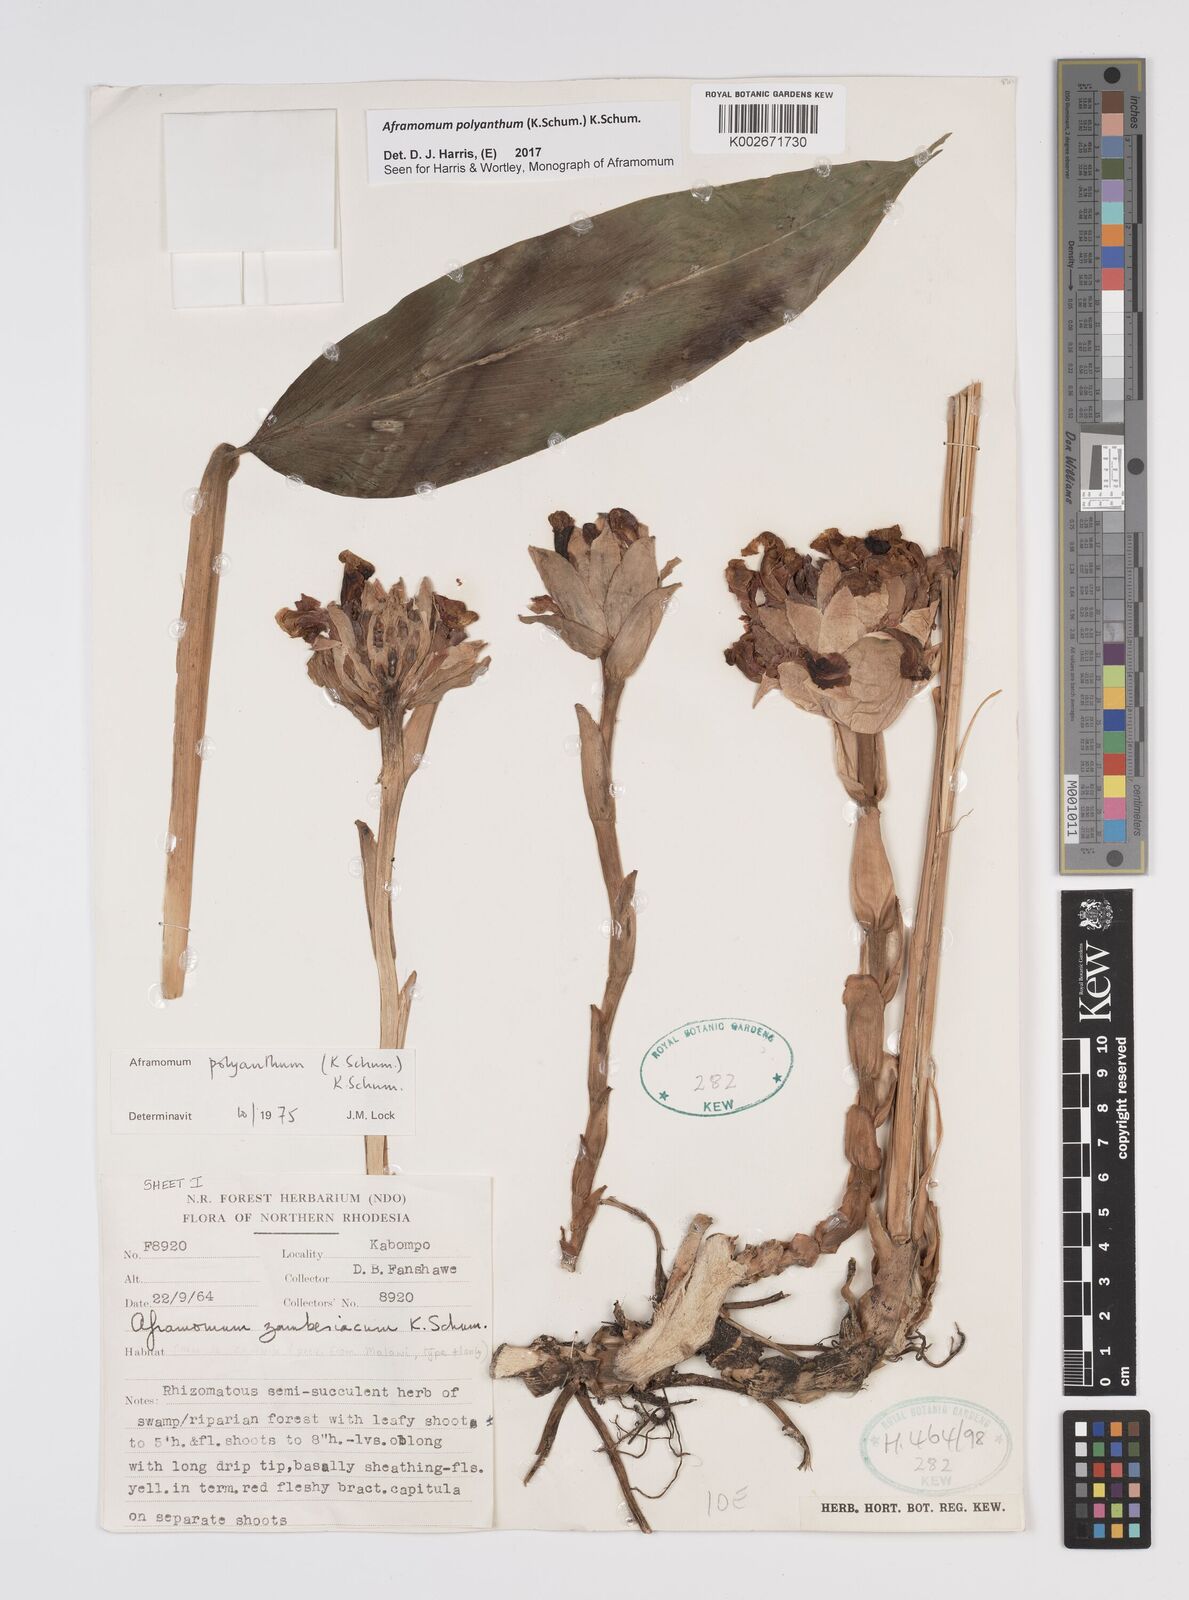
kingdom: Plantae
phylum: Tracheophyta
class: Liliopsida
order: Zingiberales
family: Zingiberaceae
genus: Aframomum
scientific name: Aframomum polyanthum
